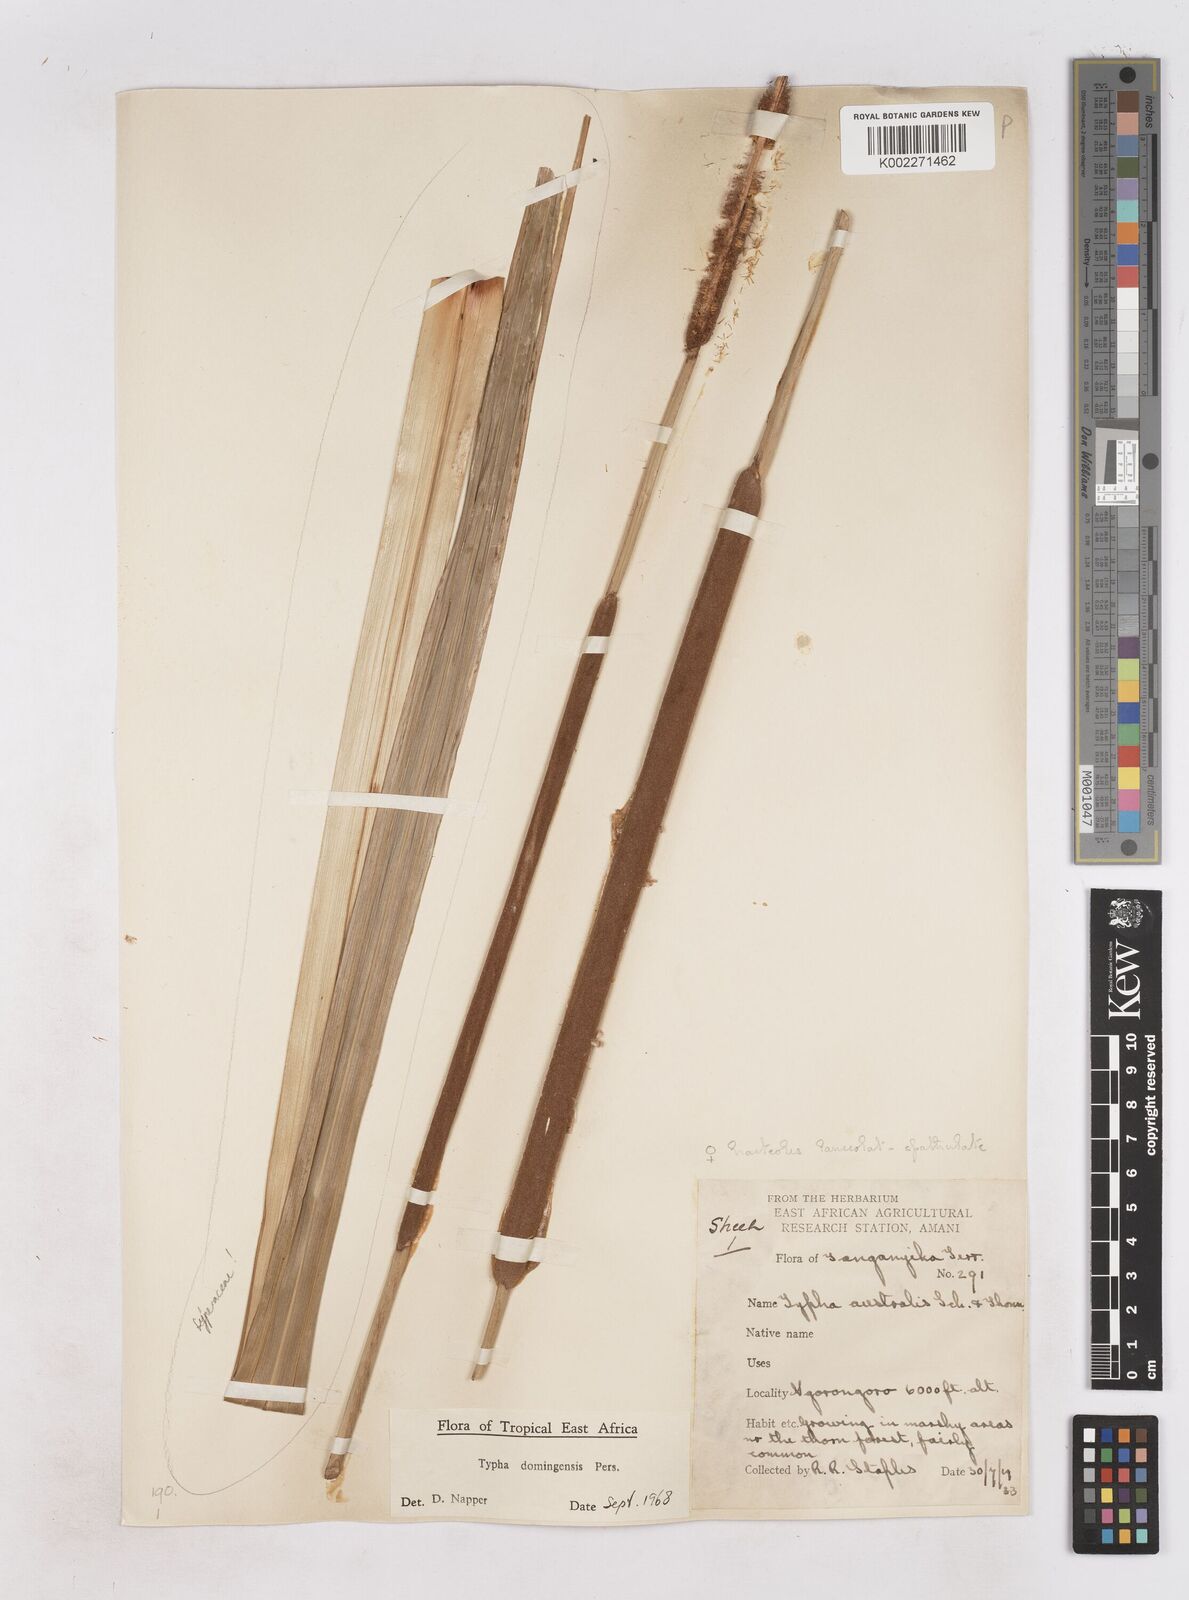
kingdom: Plantae
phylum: Tracheophyta
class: Liliopsida
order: Poales
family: Typhaceae
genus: Typha
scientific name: Typha domingensis
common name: Southern cattail
